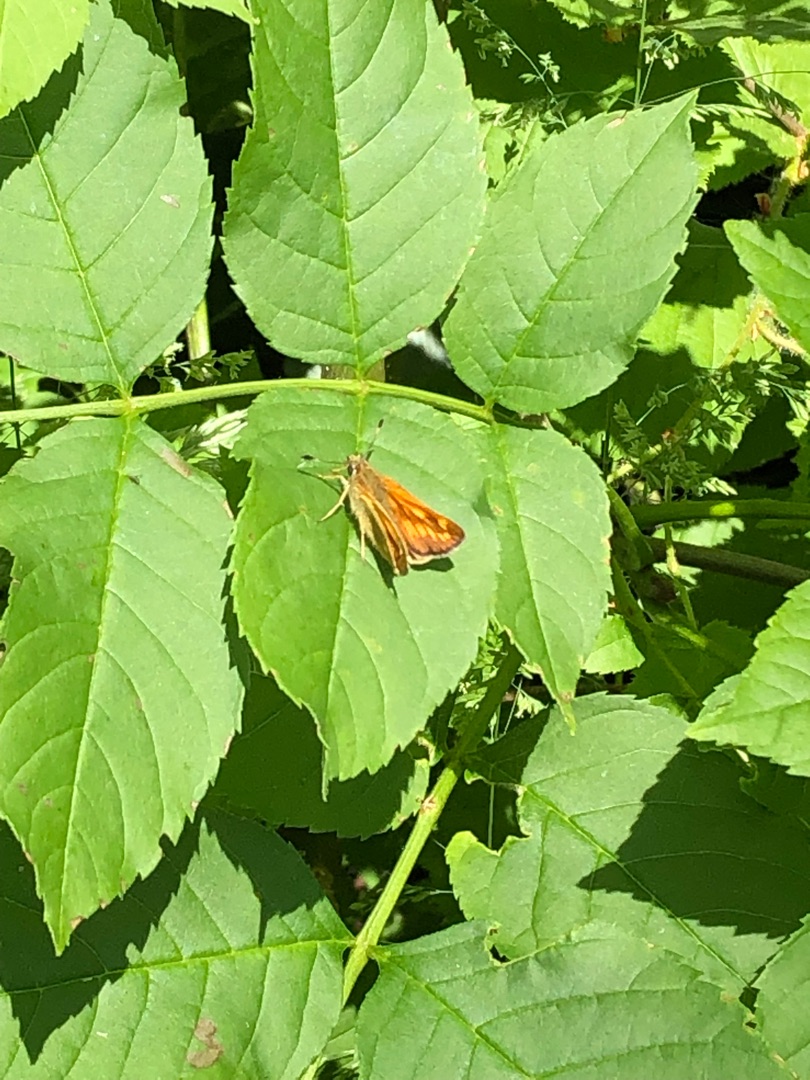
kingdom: Animalia
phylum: Arthropoda
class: Insecta
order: Lepidoptera
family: Hesperiidae
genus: Ochlodes
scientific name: Ochlodes venata
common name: Stor bredpande
